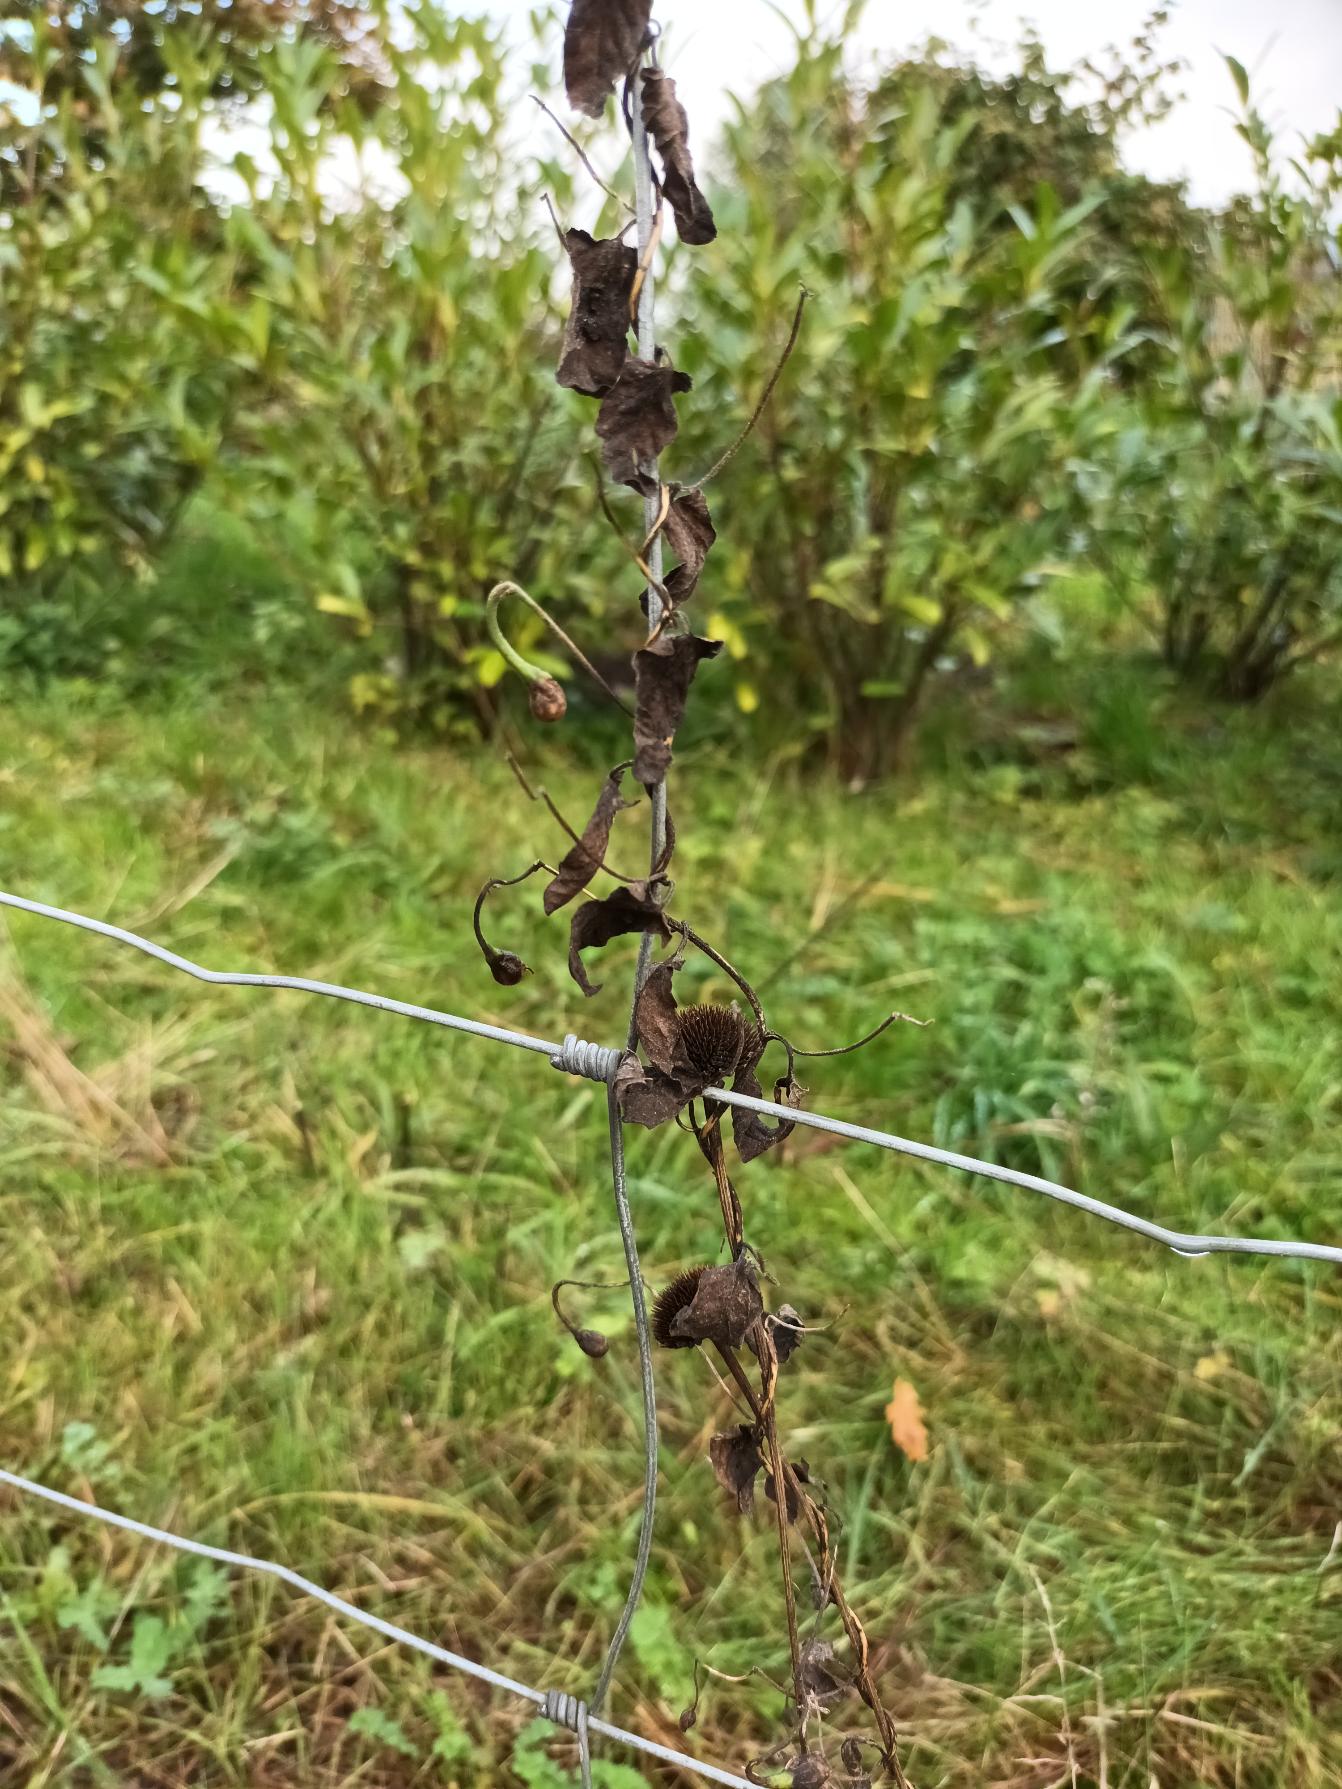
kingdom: Plantae
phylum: Tracheophyta
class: Magnoliopsida
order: Solanales
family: Convolvulaceae
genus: Convolvulus
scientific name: Convolvulus arvensis
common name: Ager-snerle
